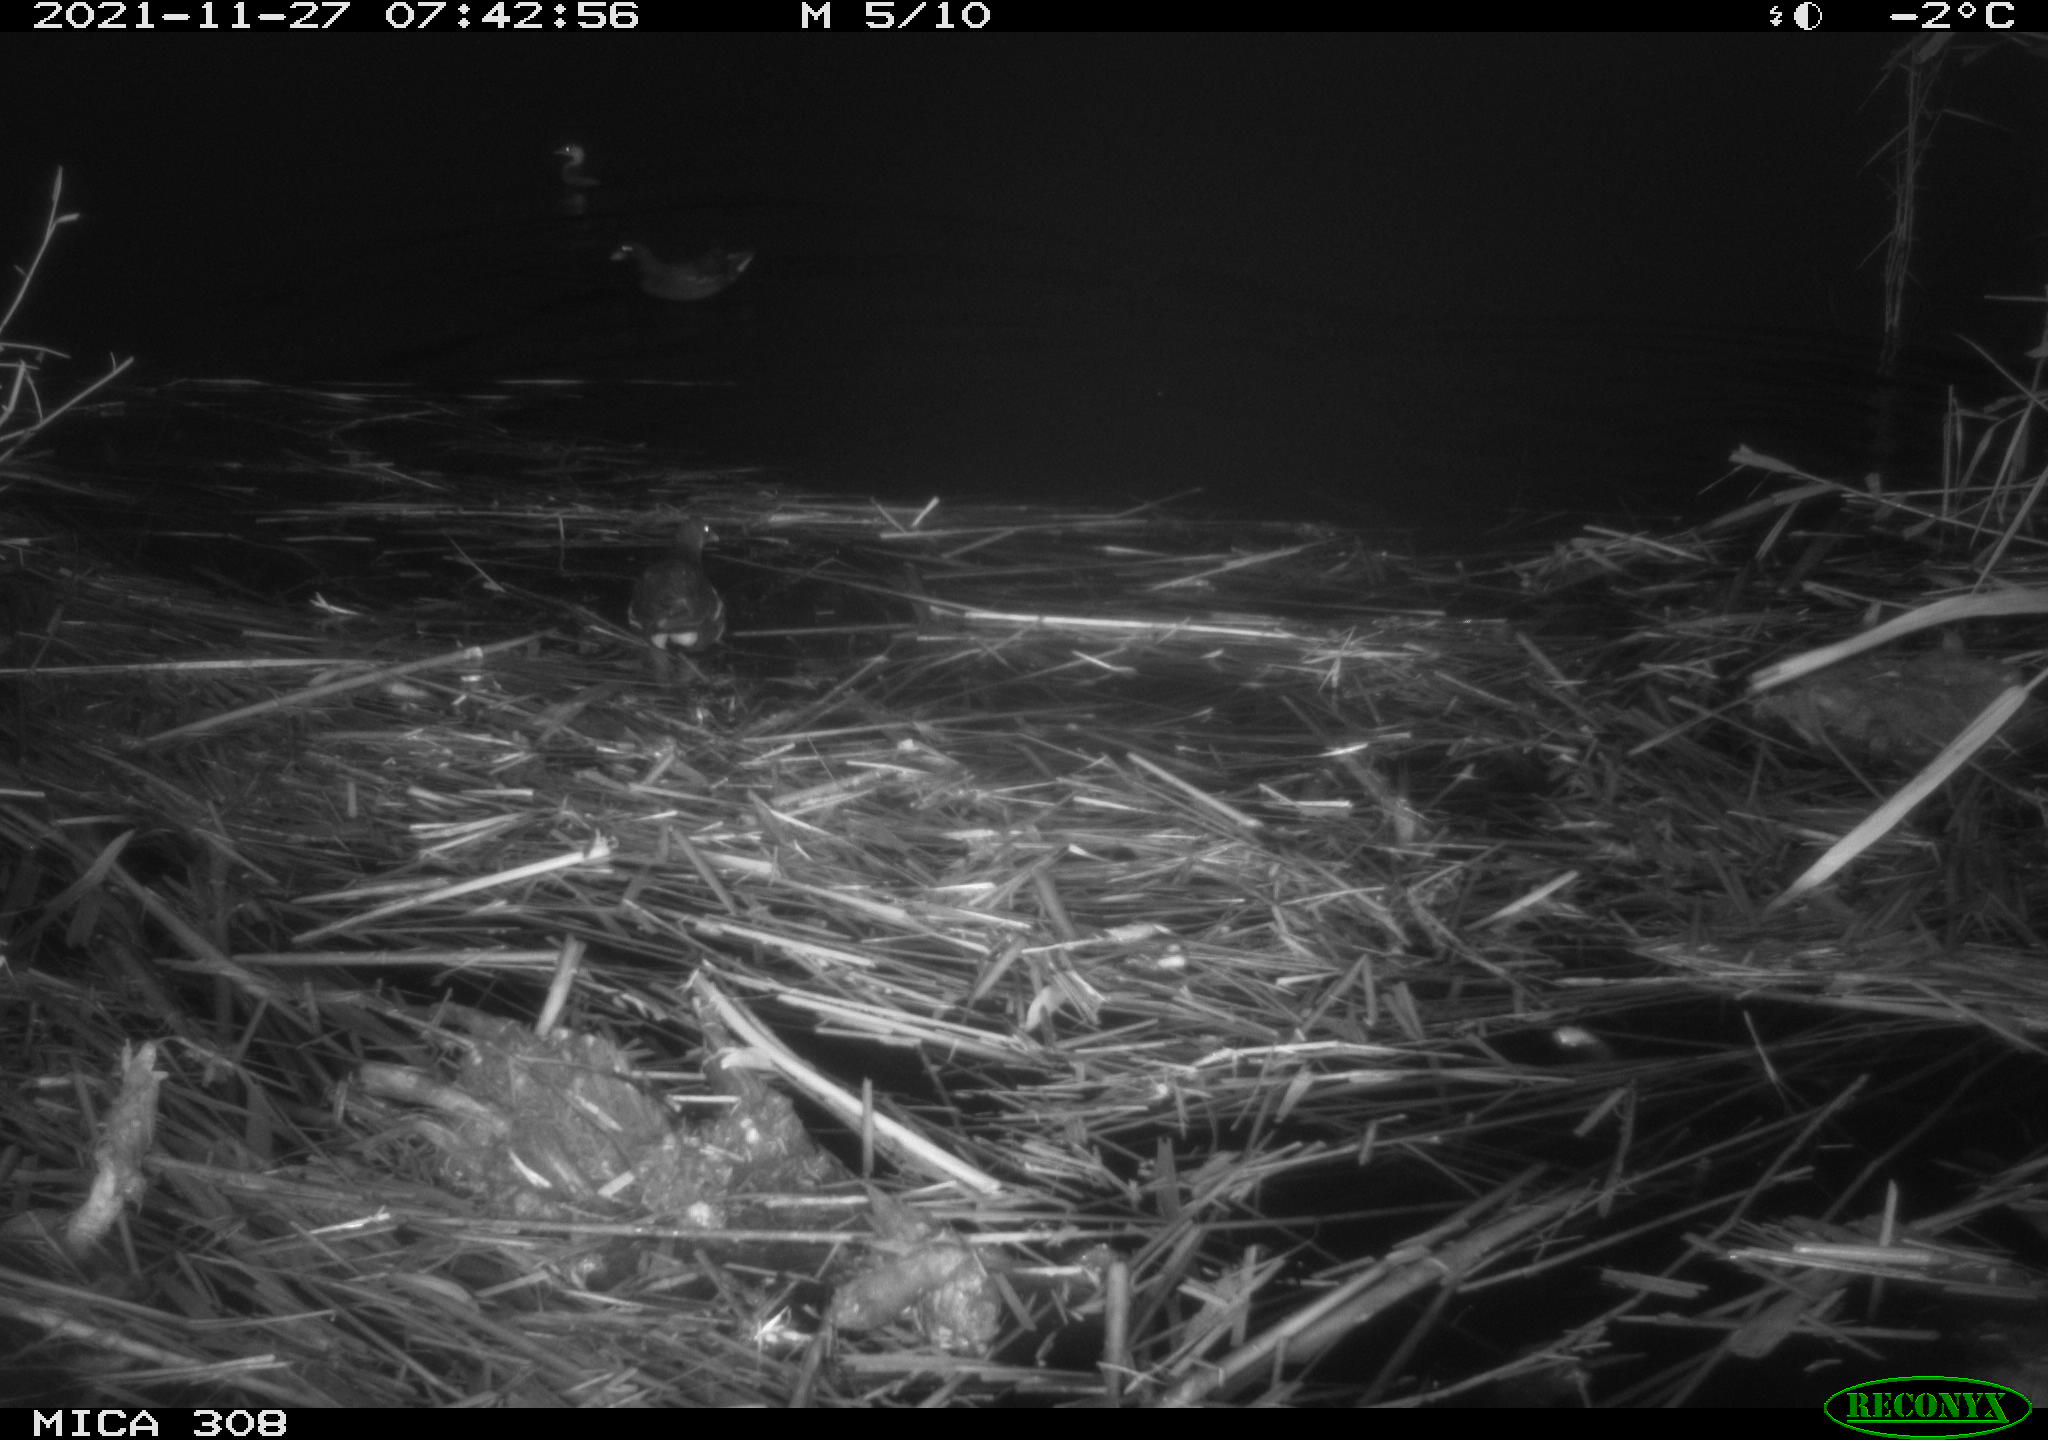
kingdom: Animalia
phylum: Chordata
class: Aves
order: Gruiformes
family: Rallidae
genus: Gallinula
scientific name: Gallinula chloropus
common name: Common moorhen
